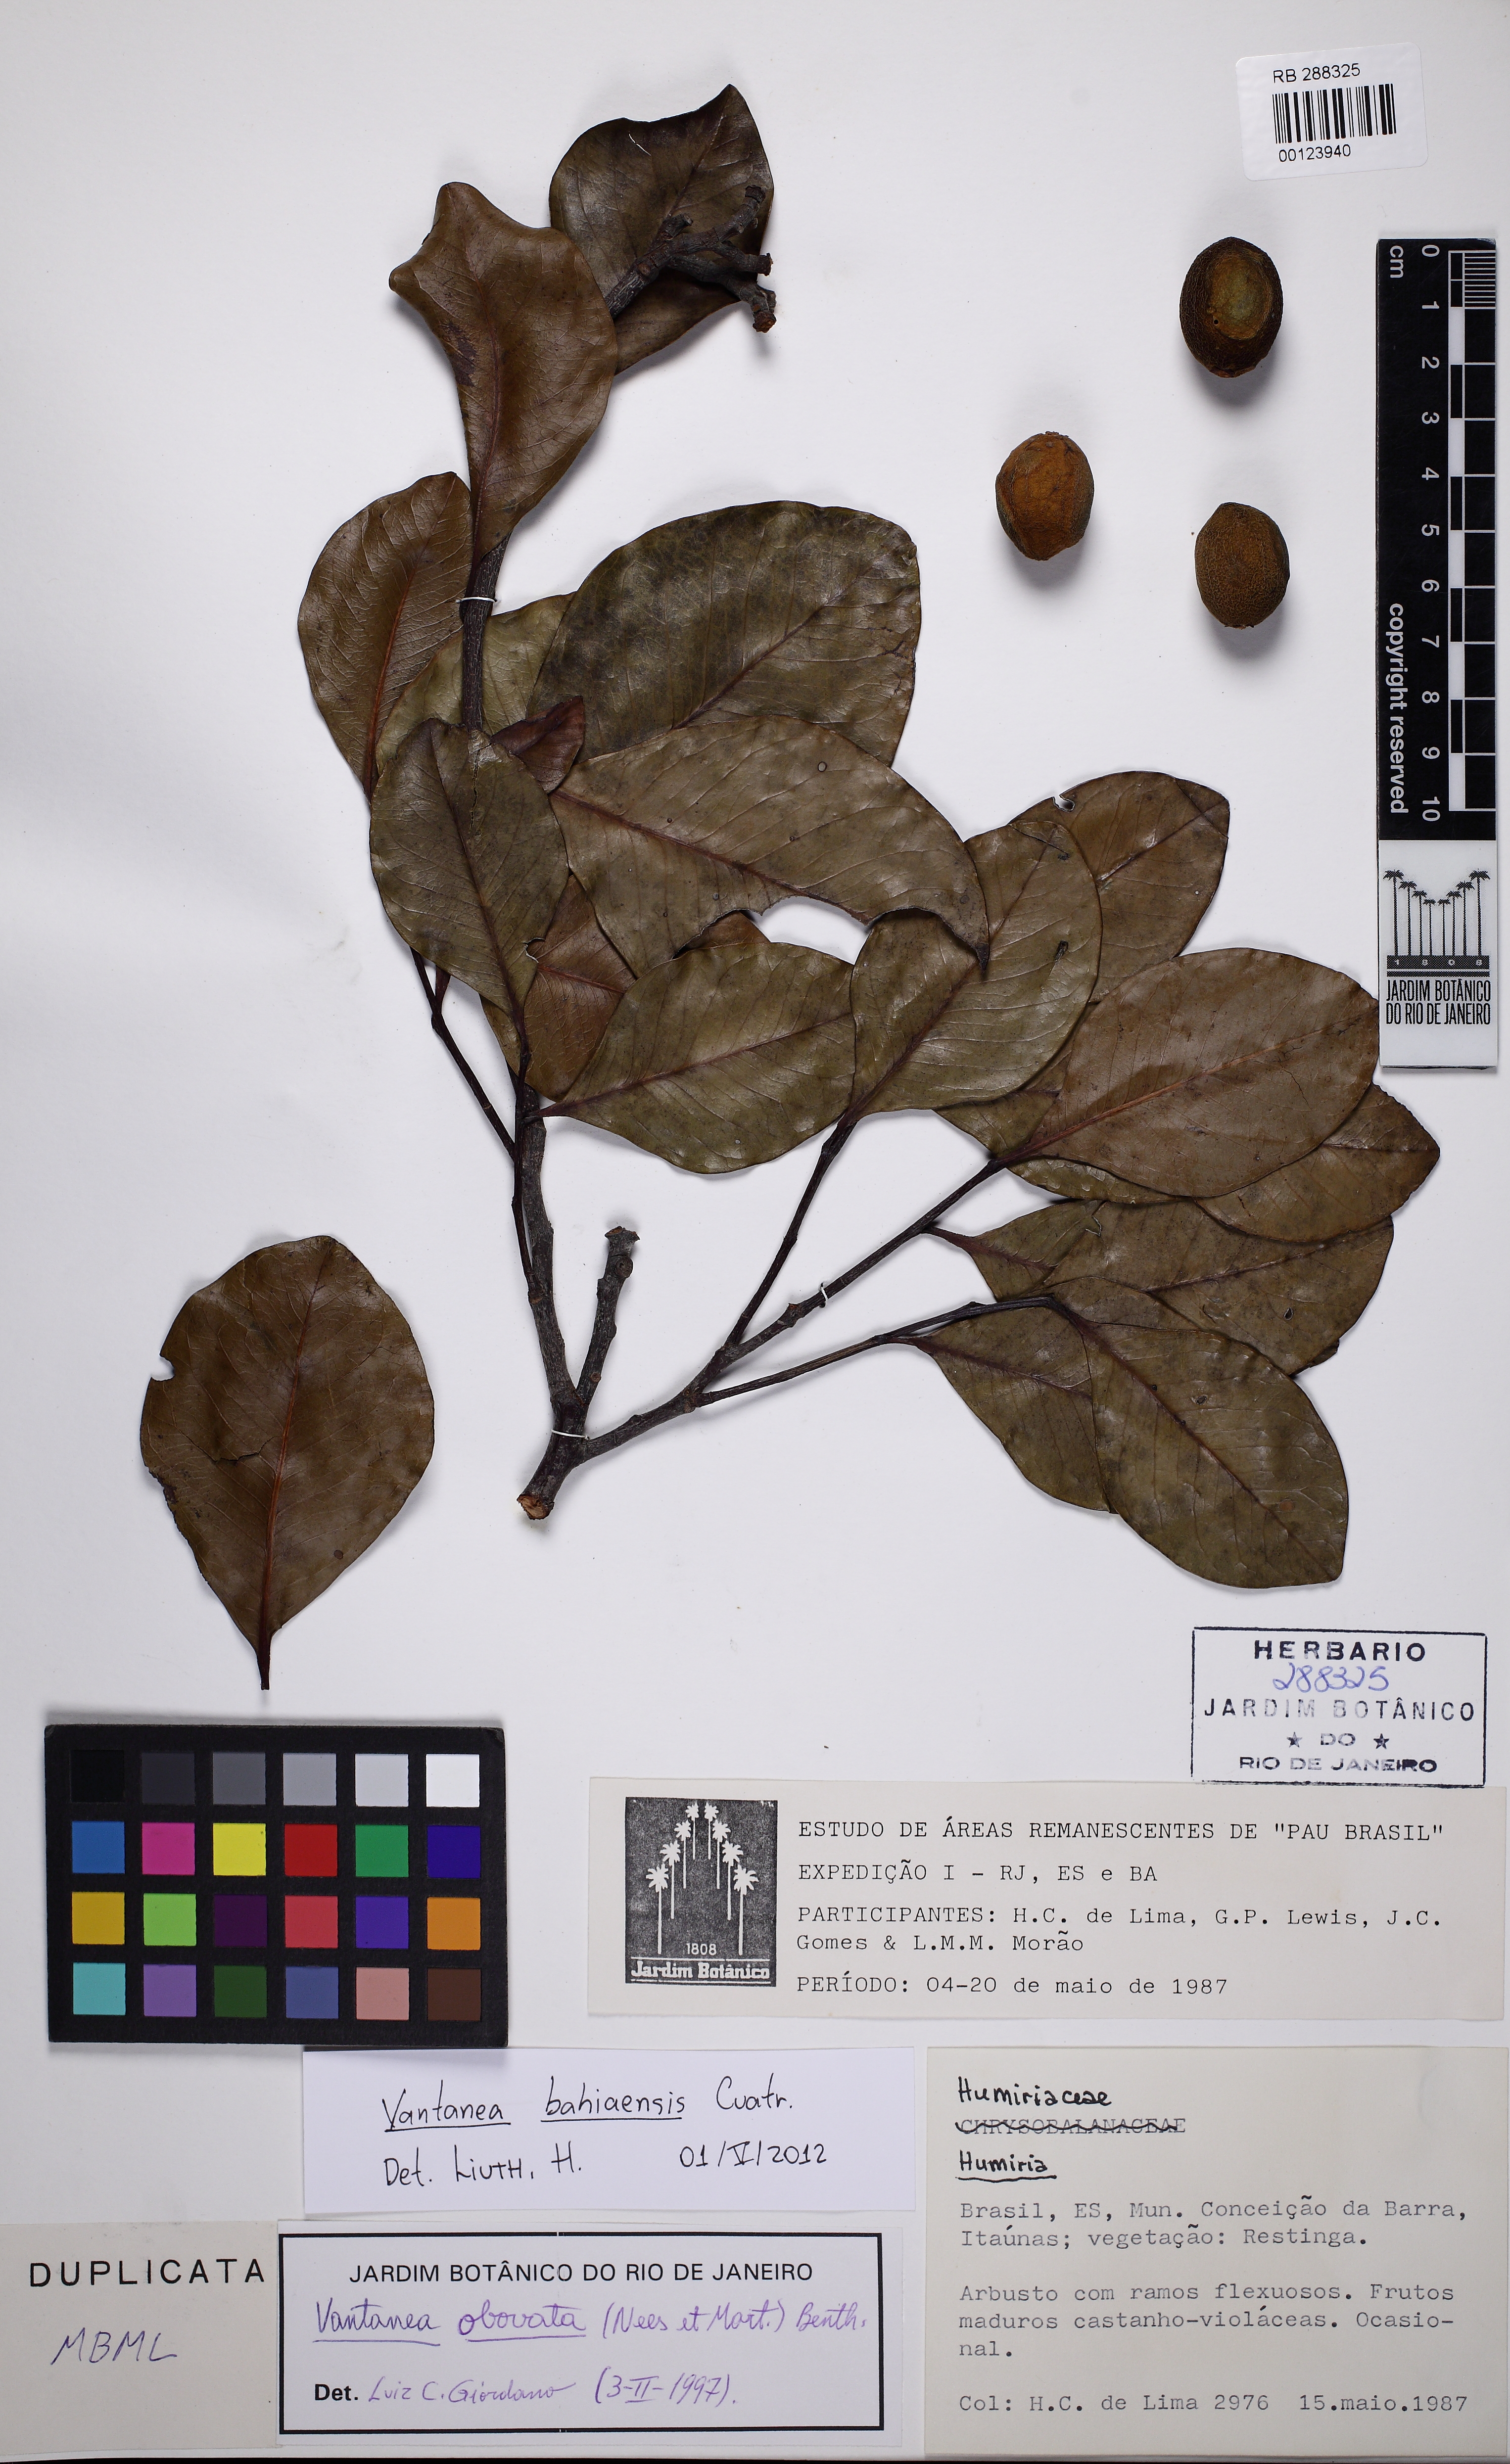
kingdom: Plantae
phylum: Tracheophyta
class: Magnoliopsida
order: Malpighiales
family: Humiriaceae
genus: Vantanea
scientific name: Vantanea bahiaensis
